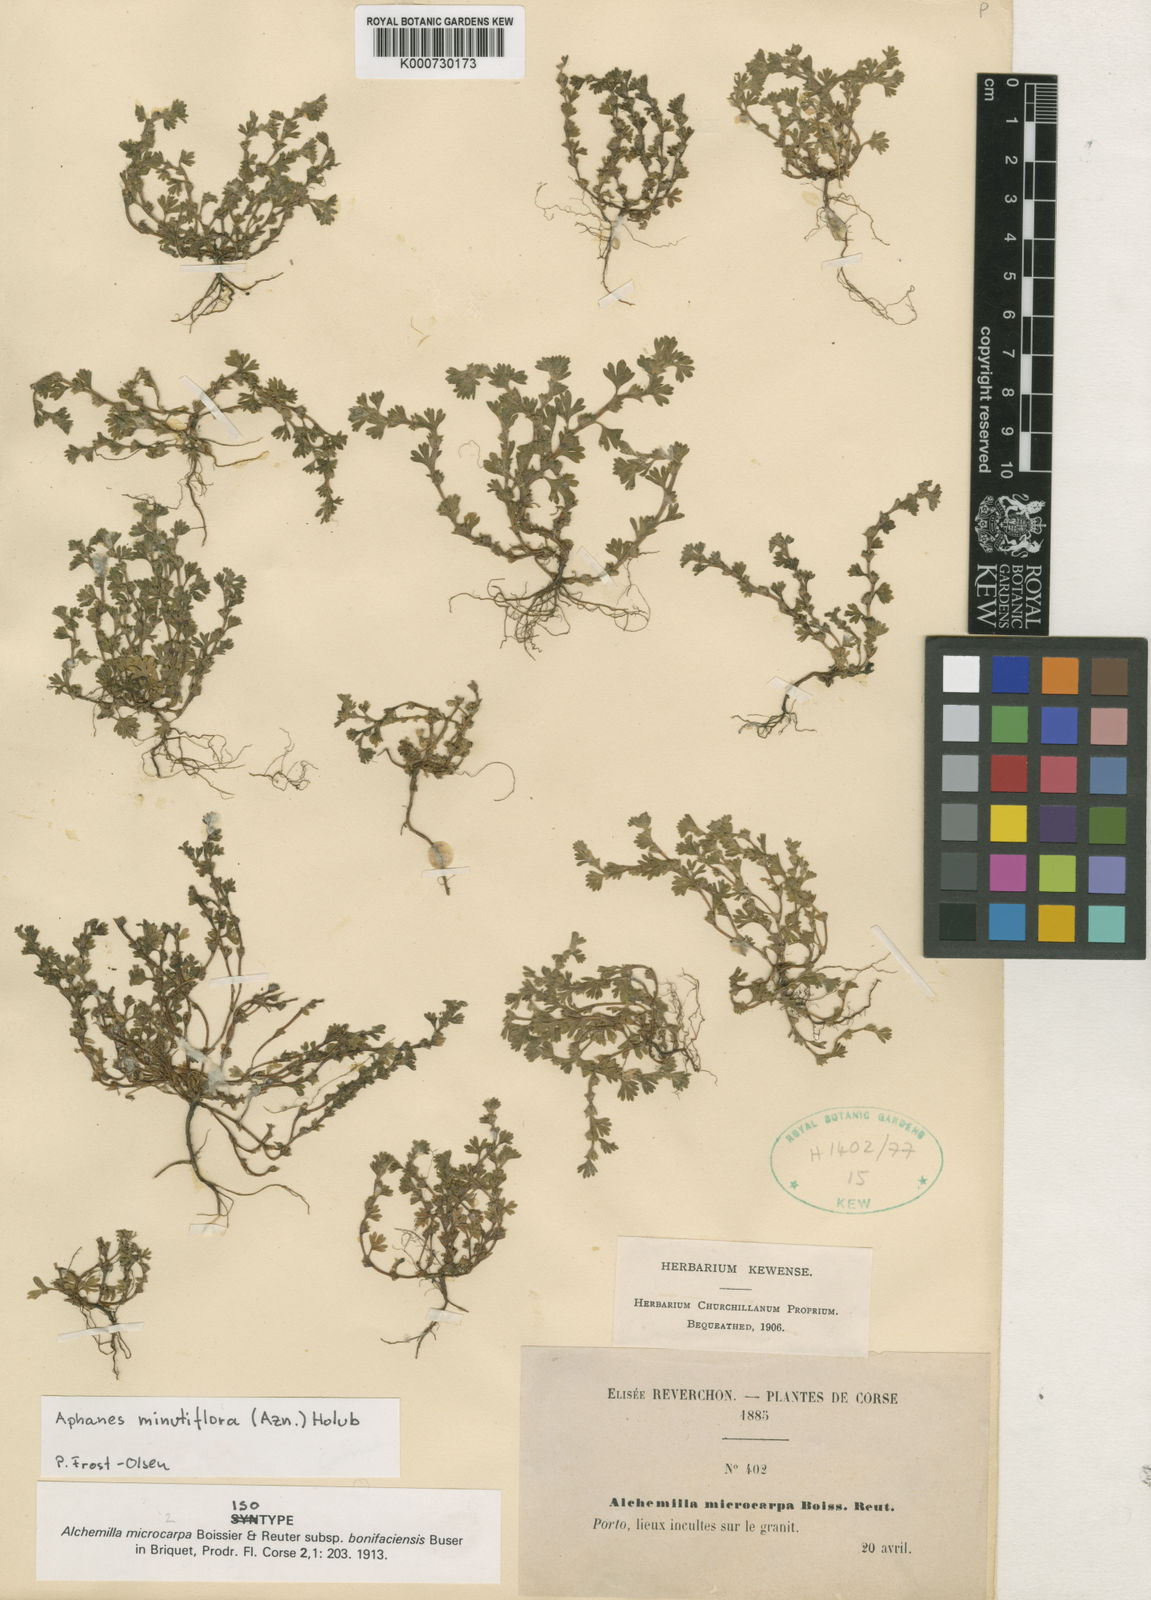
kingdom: Plantae
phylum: Tracheophyta
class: Magnoliopsida
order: Rosales
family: Rosaceae
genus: Aphanes
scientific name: Aphanes minutiflora
